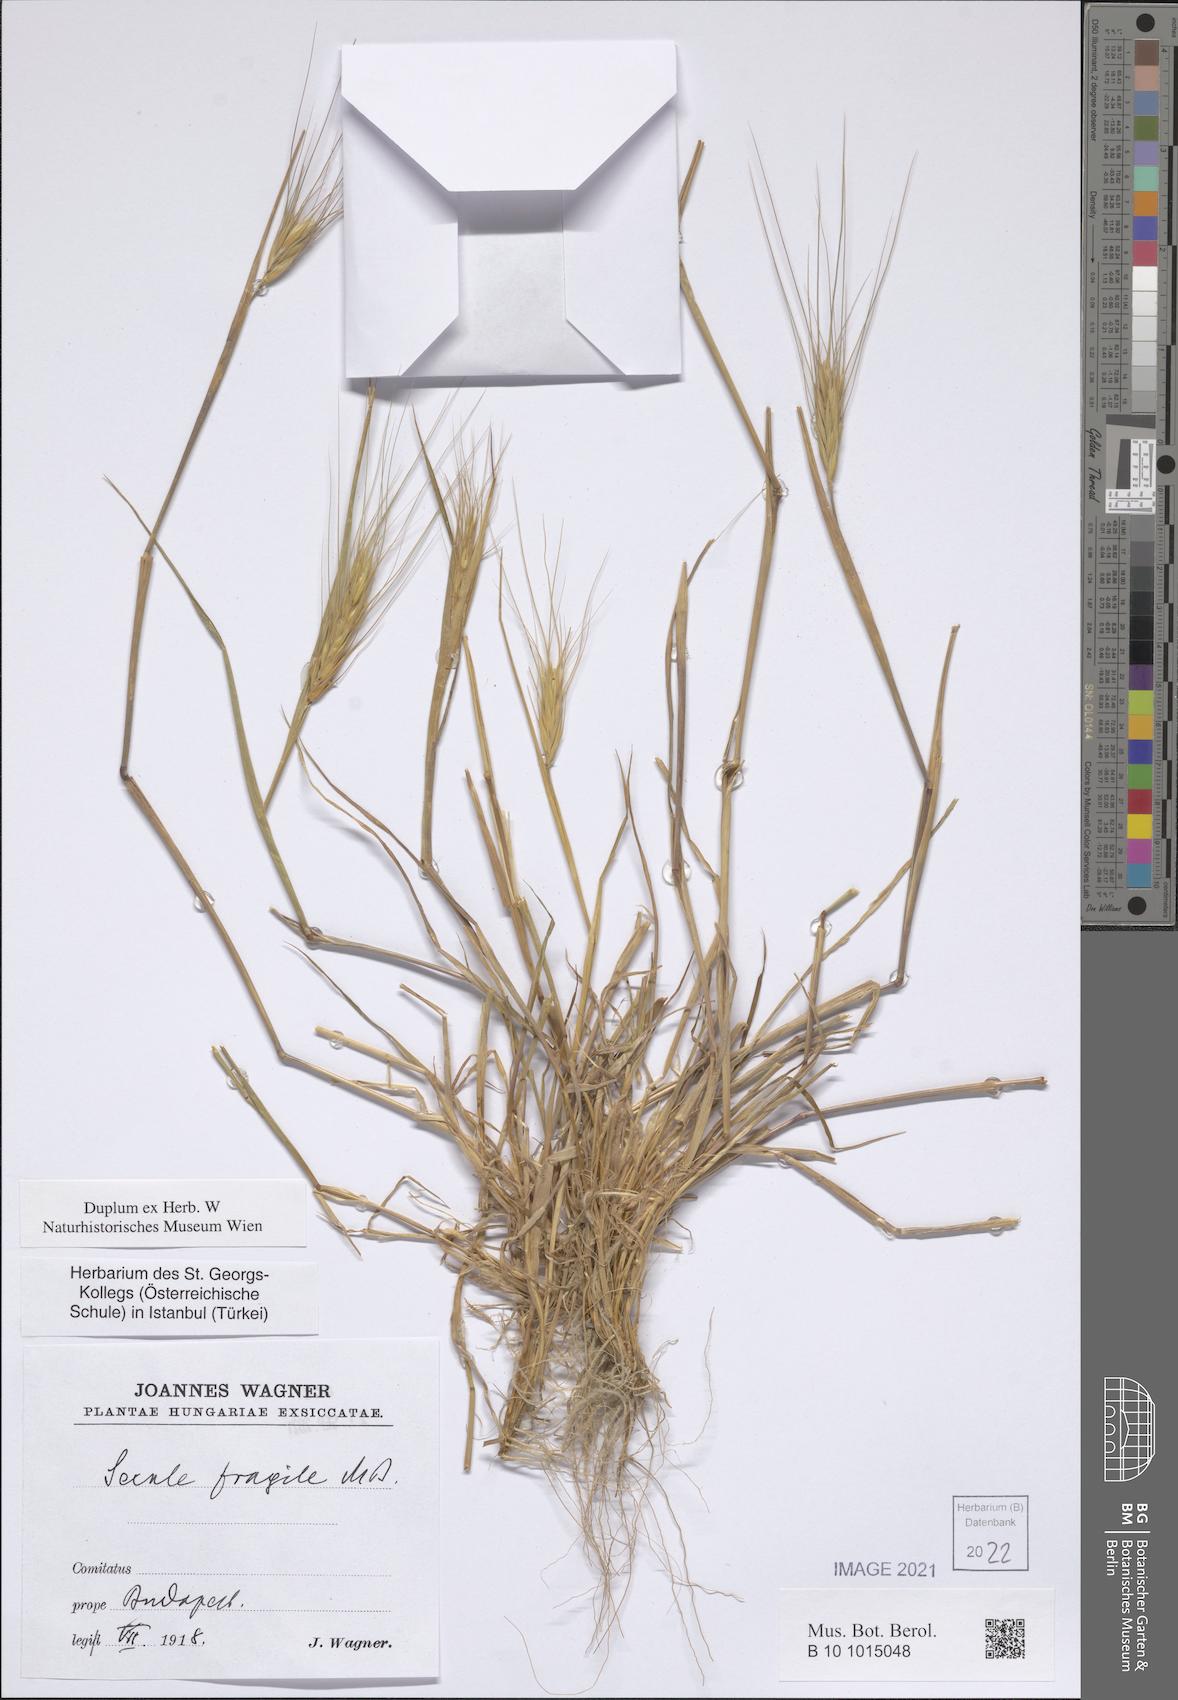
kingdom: Plantae
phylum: Tracheophyta
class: Liliopsida
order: Poales
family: Poaceae
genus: Secale
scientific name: Secale sylvestre
